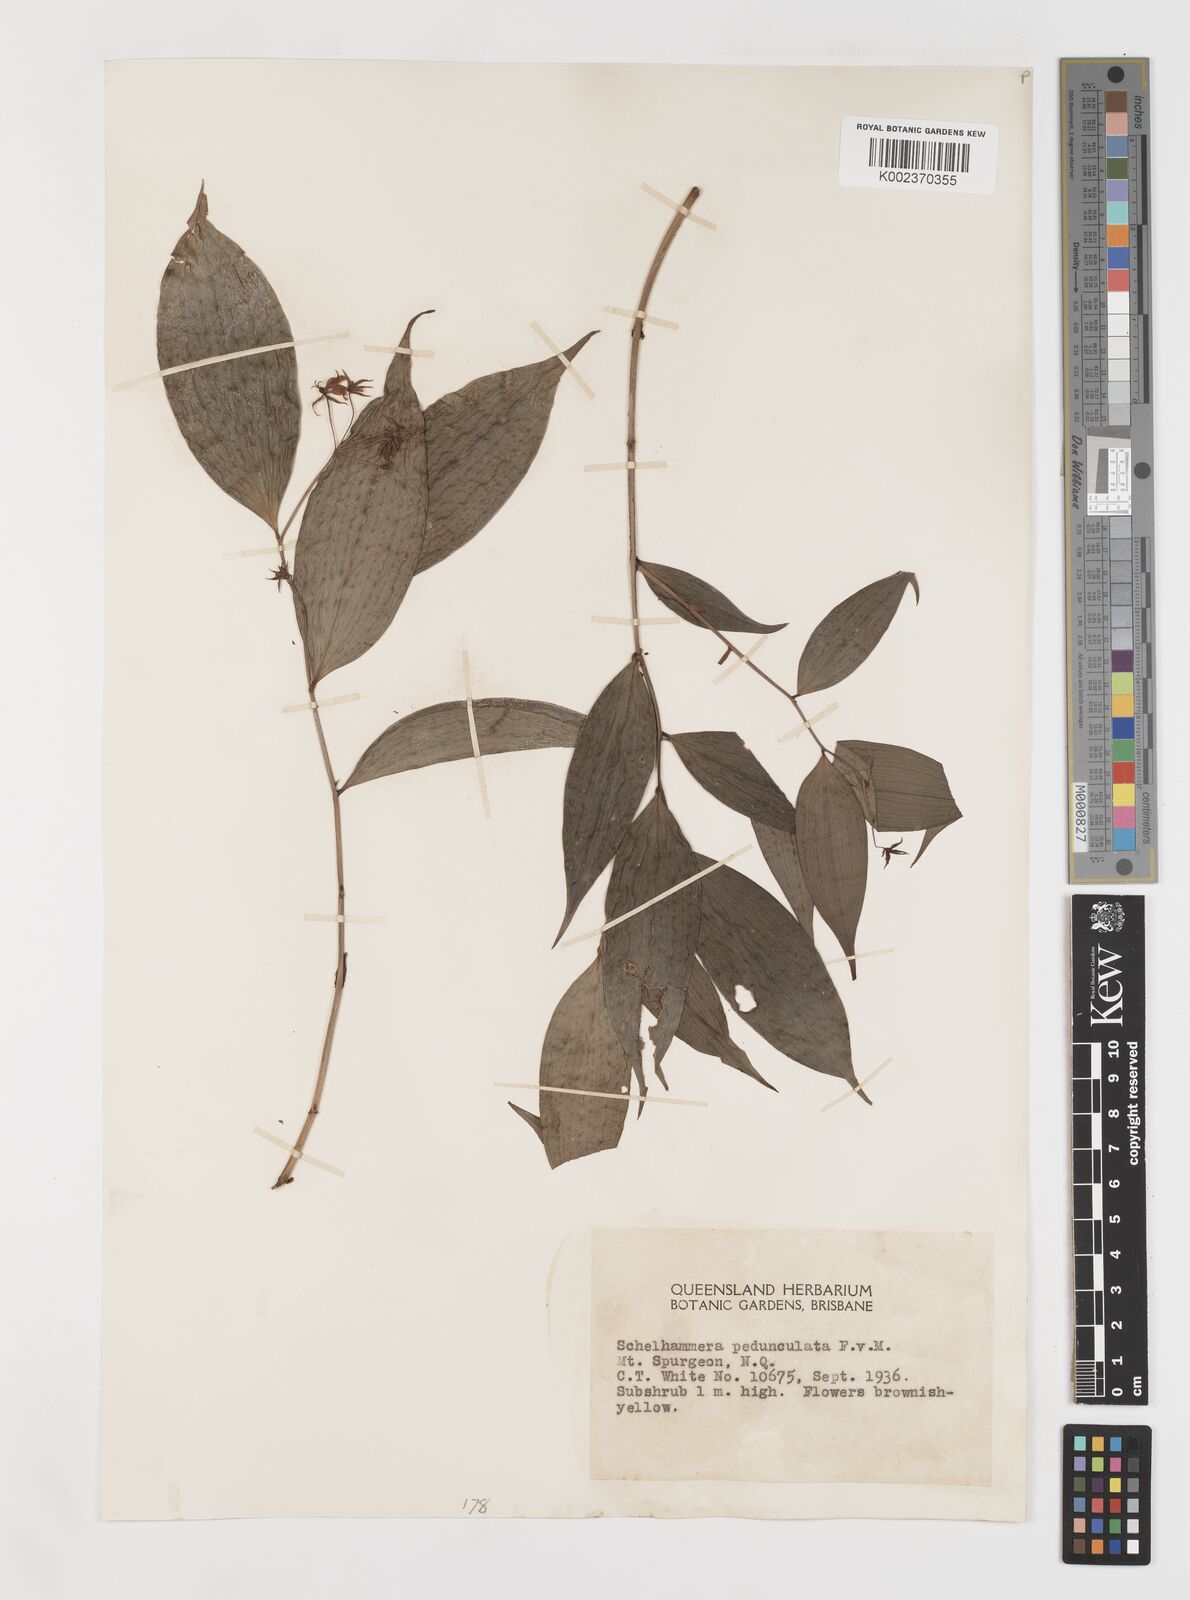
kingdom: Plantae
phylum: Tracheophyta
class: Liliopsida
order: Liliales
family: Colchicaceae
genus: Kuntheria
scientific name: Kuntheria pedunculata
